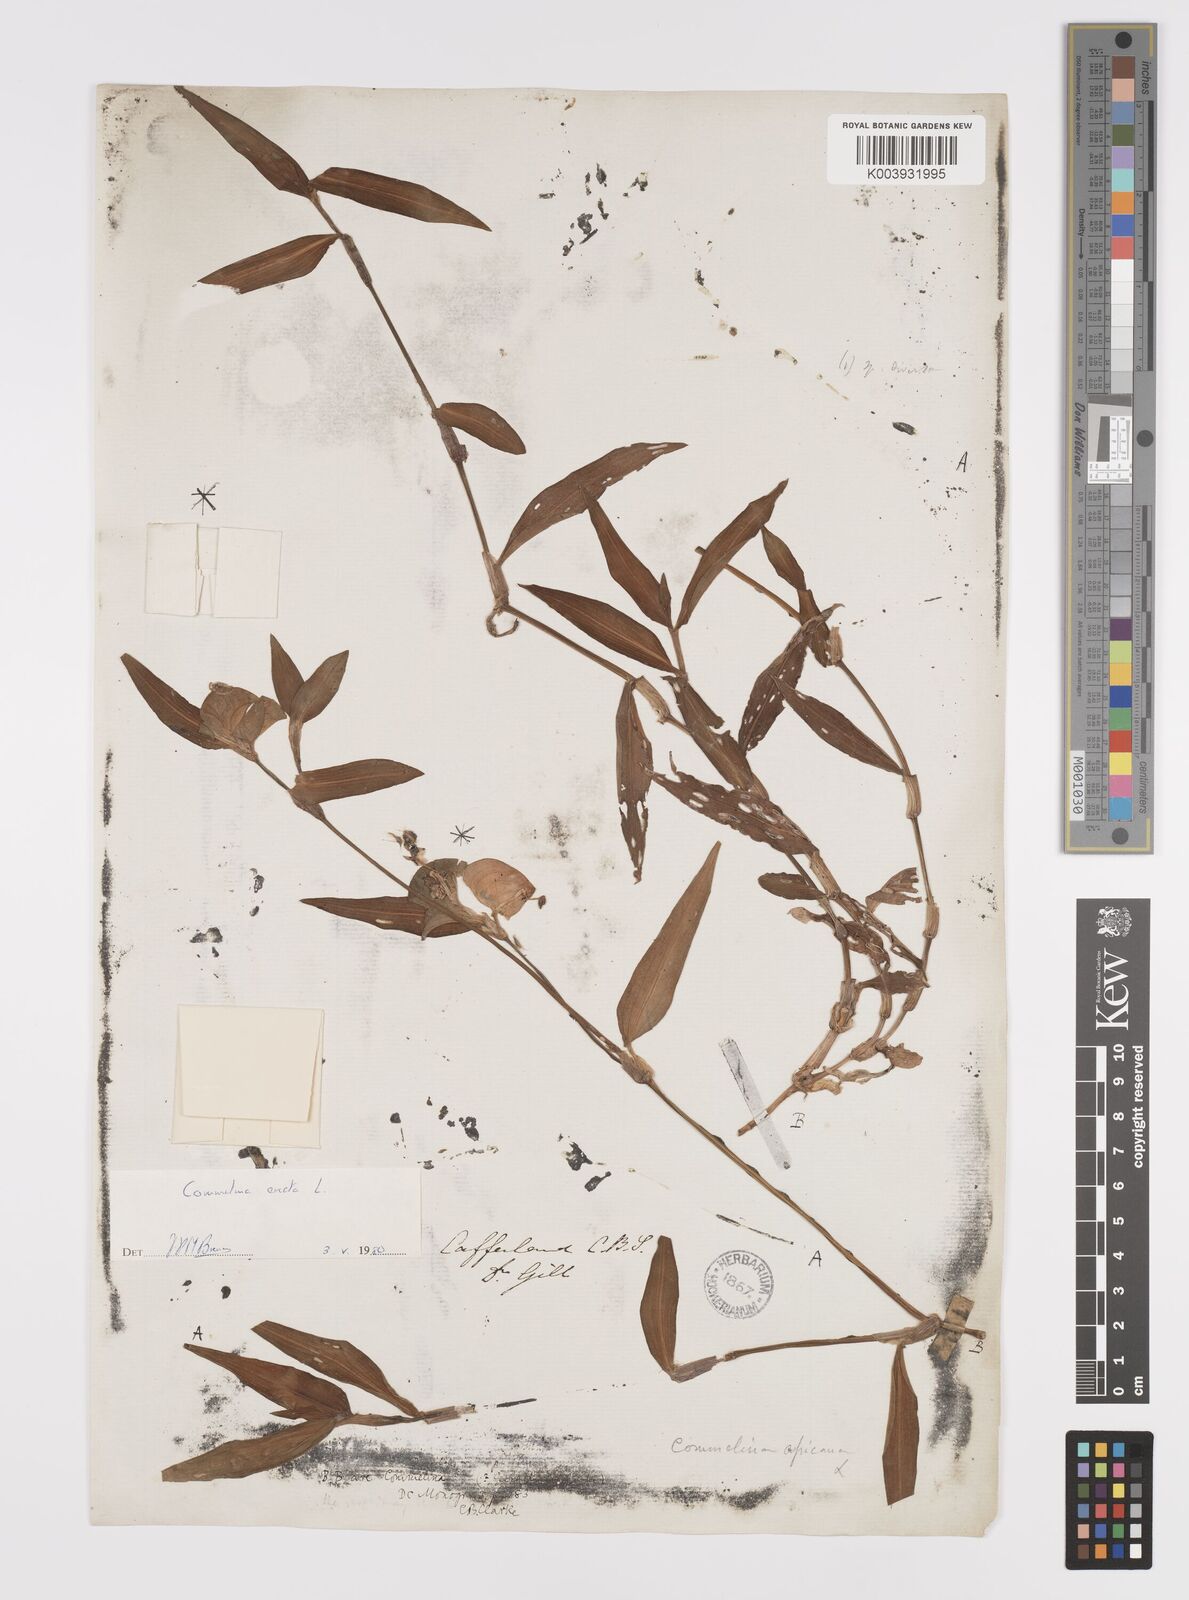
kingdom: Plantae
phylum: Tracheophyta
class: Liliopsida
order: Commelinales
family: Commelinaceae
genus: Commelina
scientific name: Commelina erecta
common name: Blousel blommetjie
